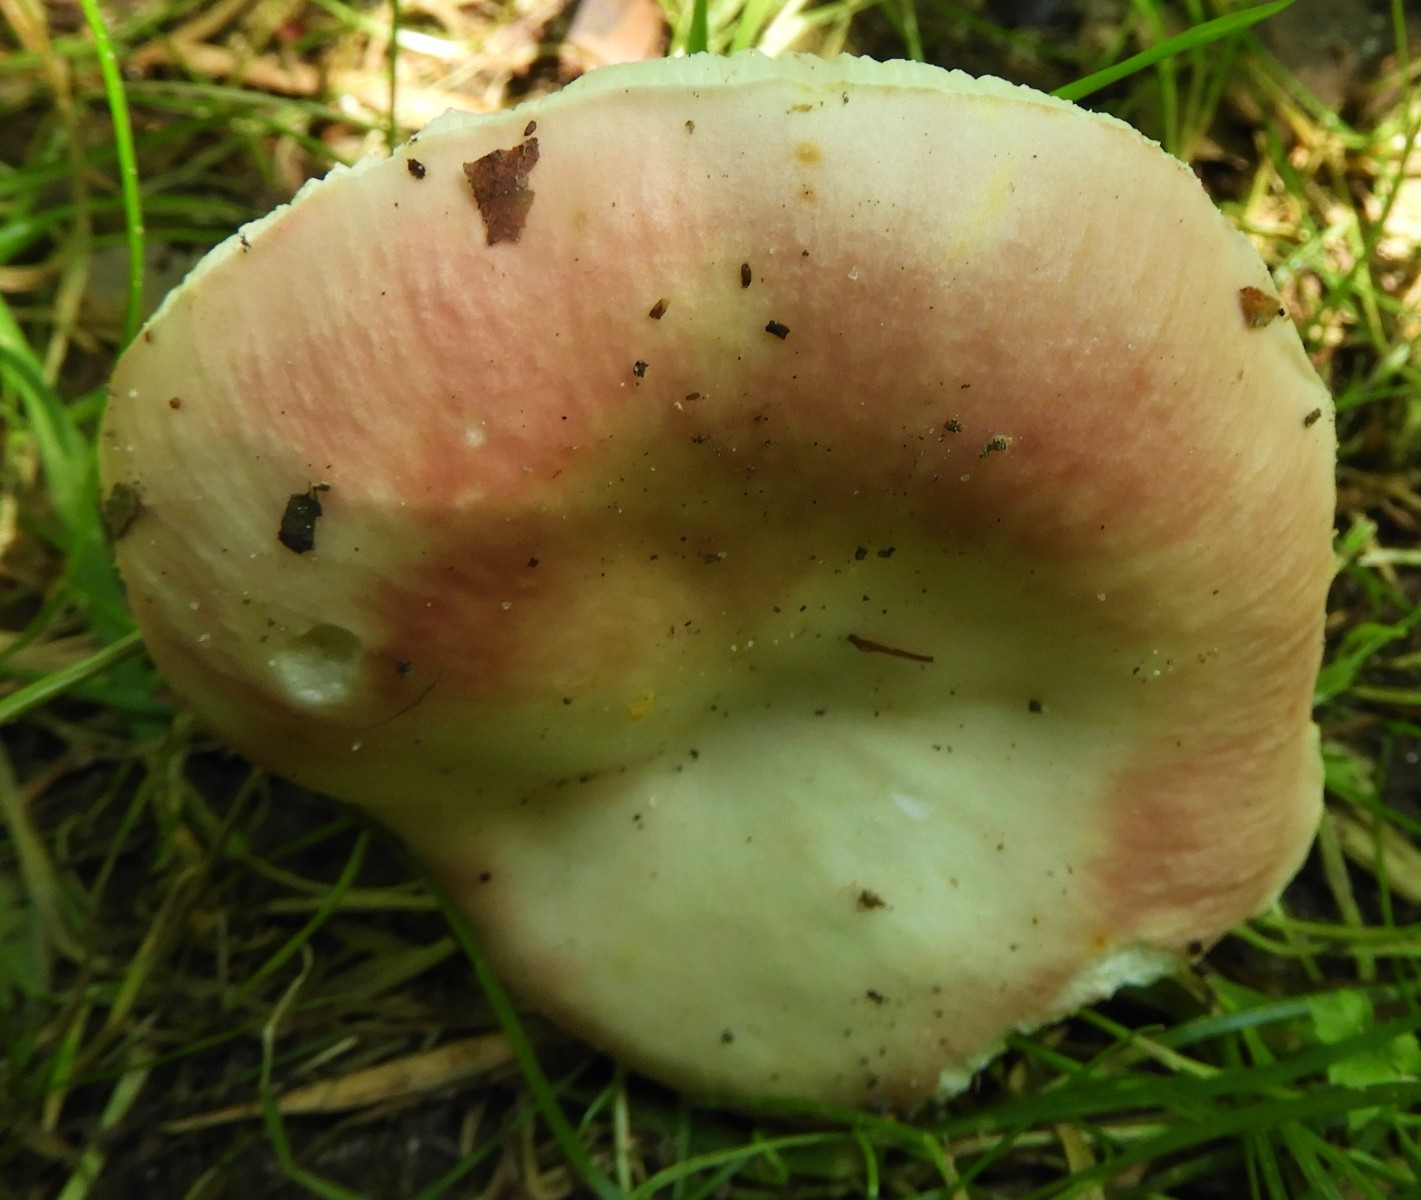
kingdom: Fungi
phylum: Basidiomycota
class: Agaricomycetes
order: Russulales
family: Russulaceae
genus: Russula
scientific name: Russula vesca
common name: spiselig skørhat
